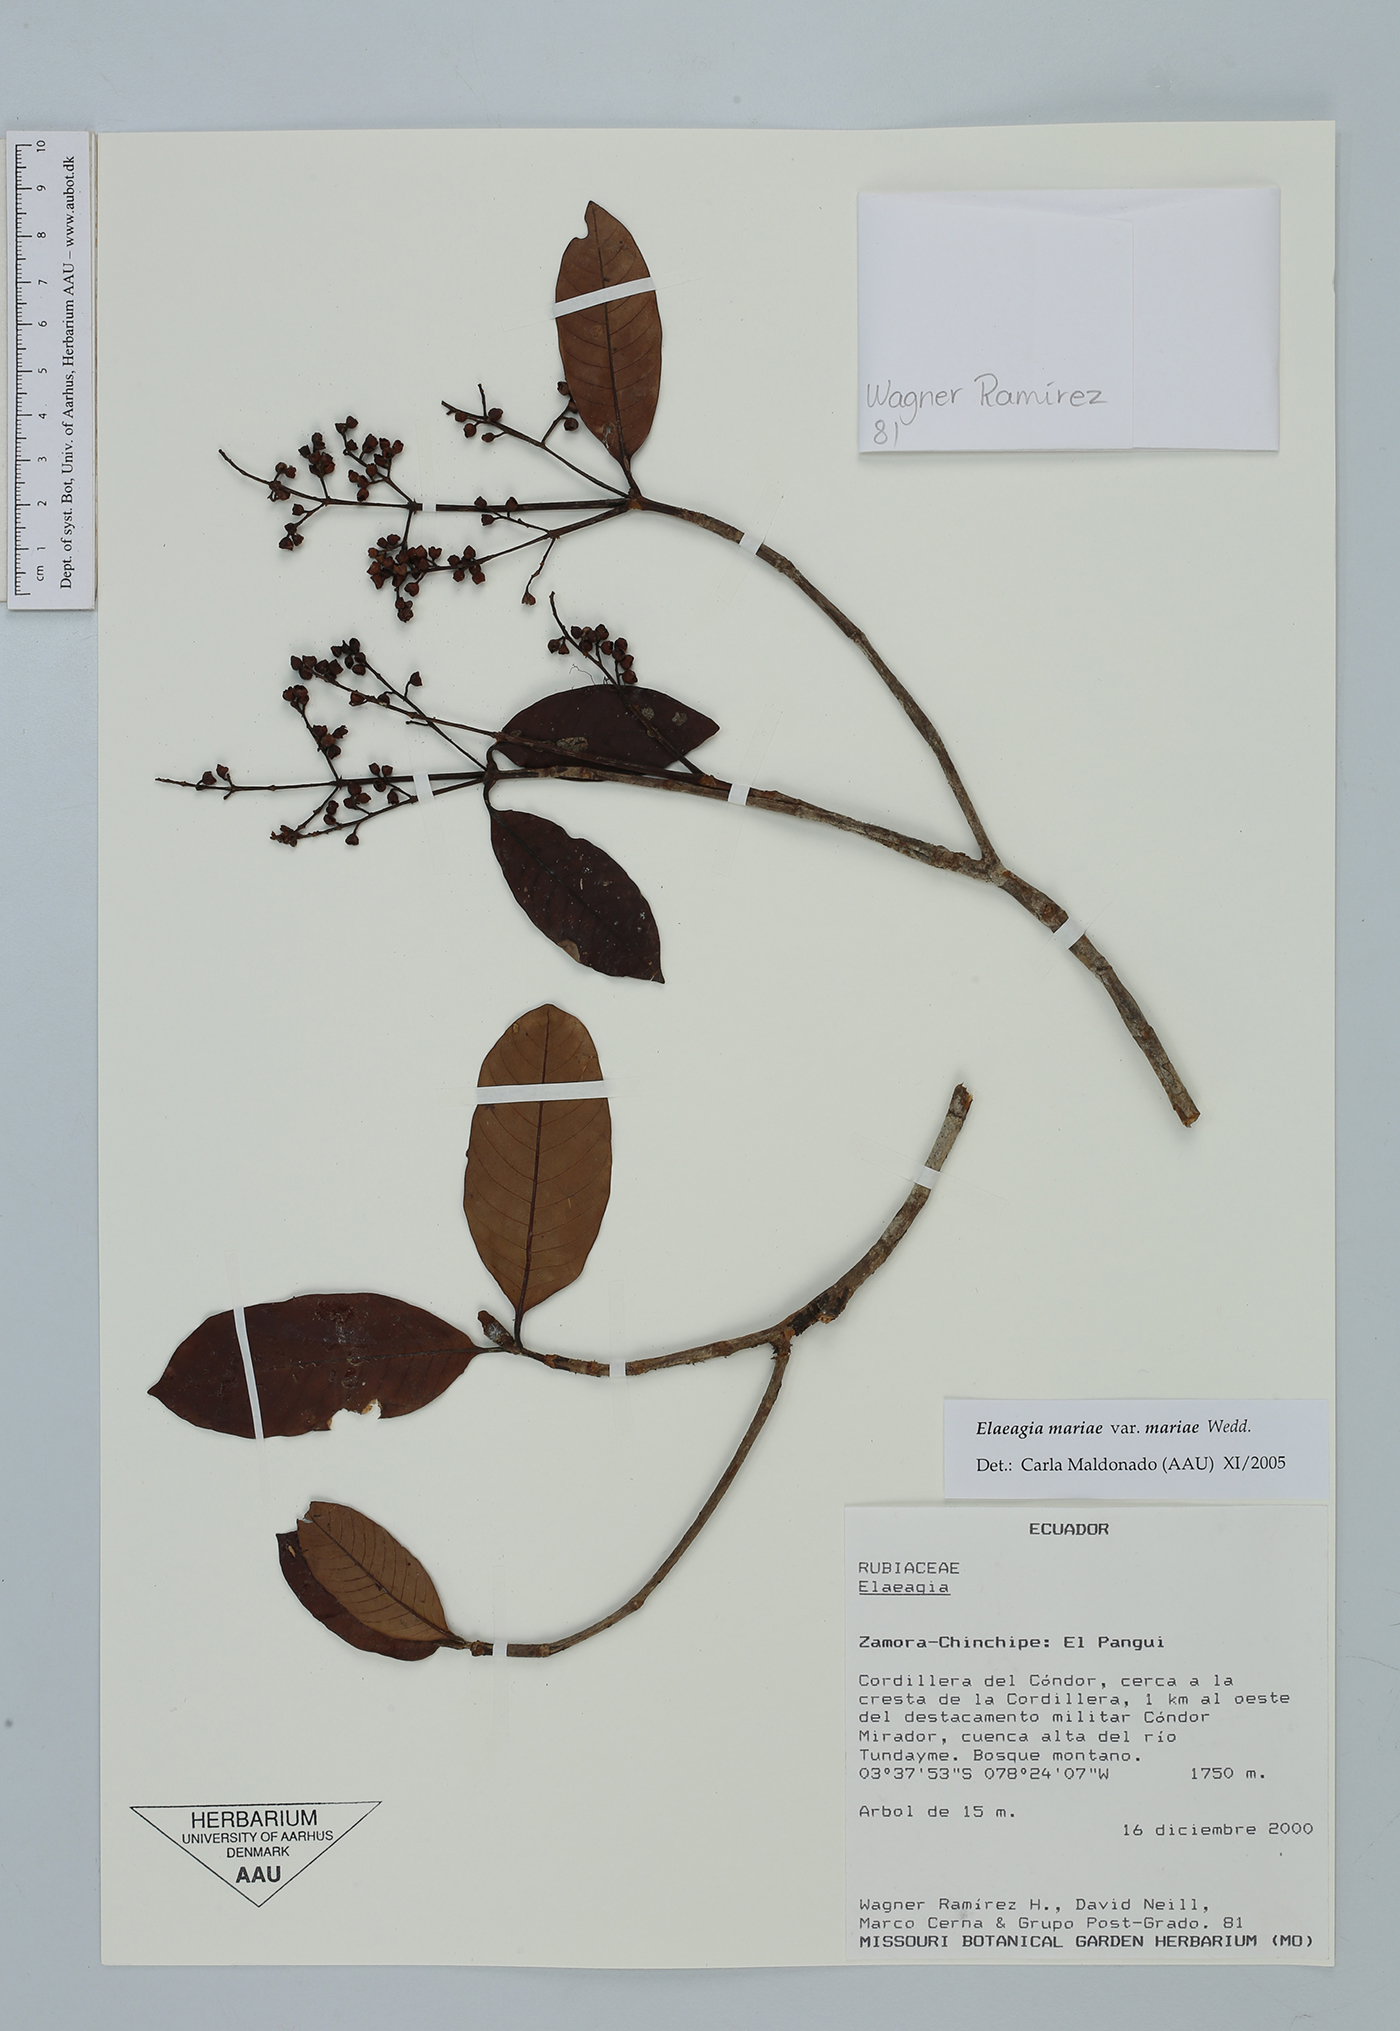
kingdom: Plantae
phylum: Tracheophyta
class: Magnoliopsida
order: Gentianales
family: Rubiaceae
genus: Elaeagia
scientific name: Elaeagia mariae
